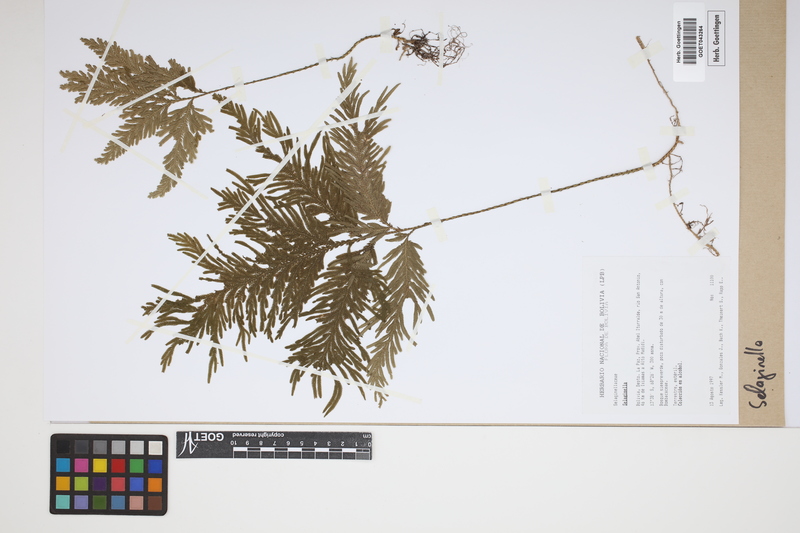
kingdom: Plantae
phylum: Tracheophyta
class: Lycopodiopsida
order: Selaginellales
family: Selaginellaceae
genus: Selaginella
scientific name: Selaginella
